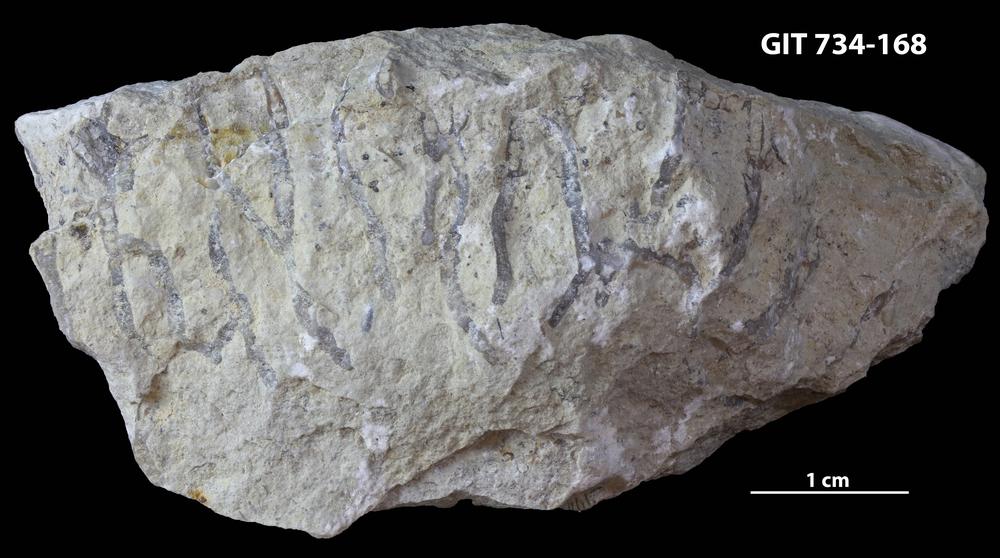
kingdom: Animalia
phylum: Cnidaria
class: Anthozoa
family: Cateniporidae
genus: Catenipora
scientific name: Catenipora
